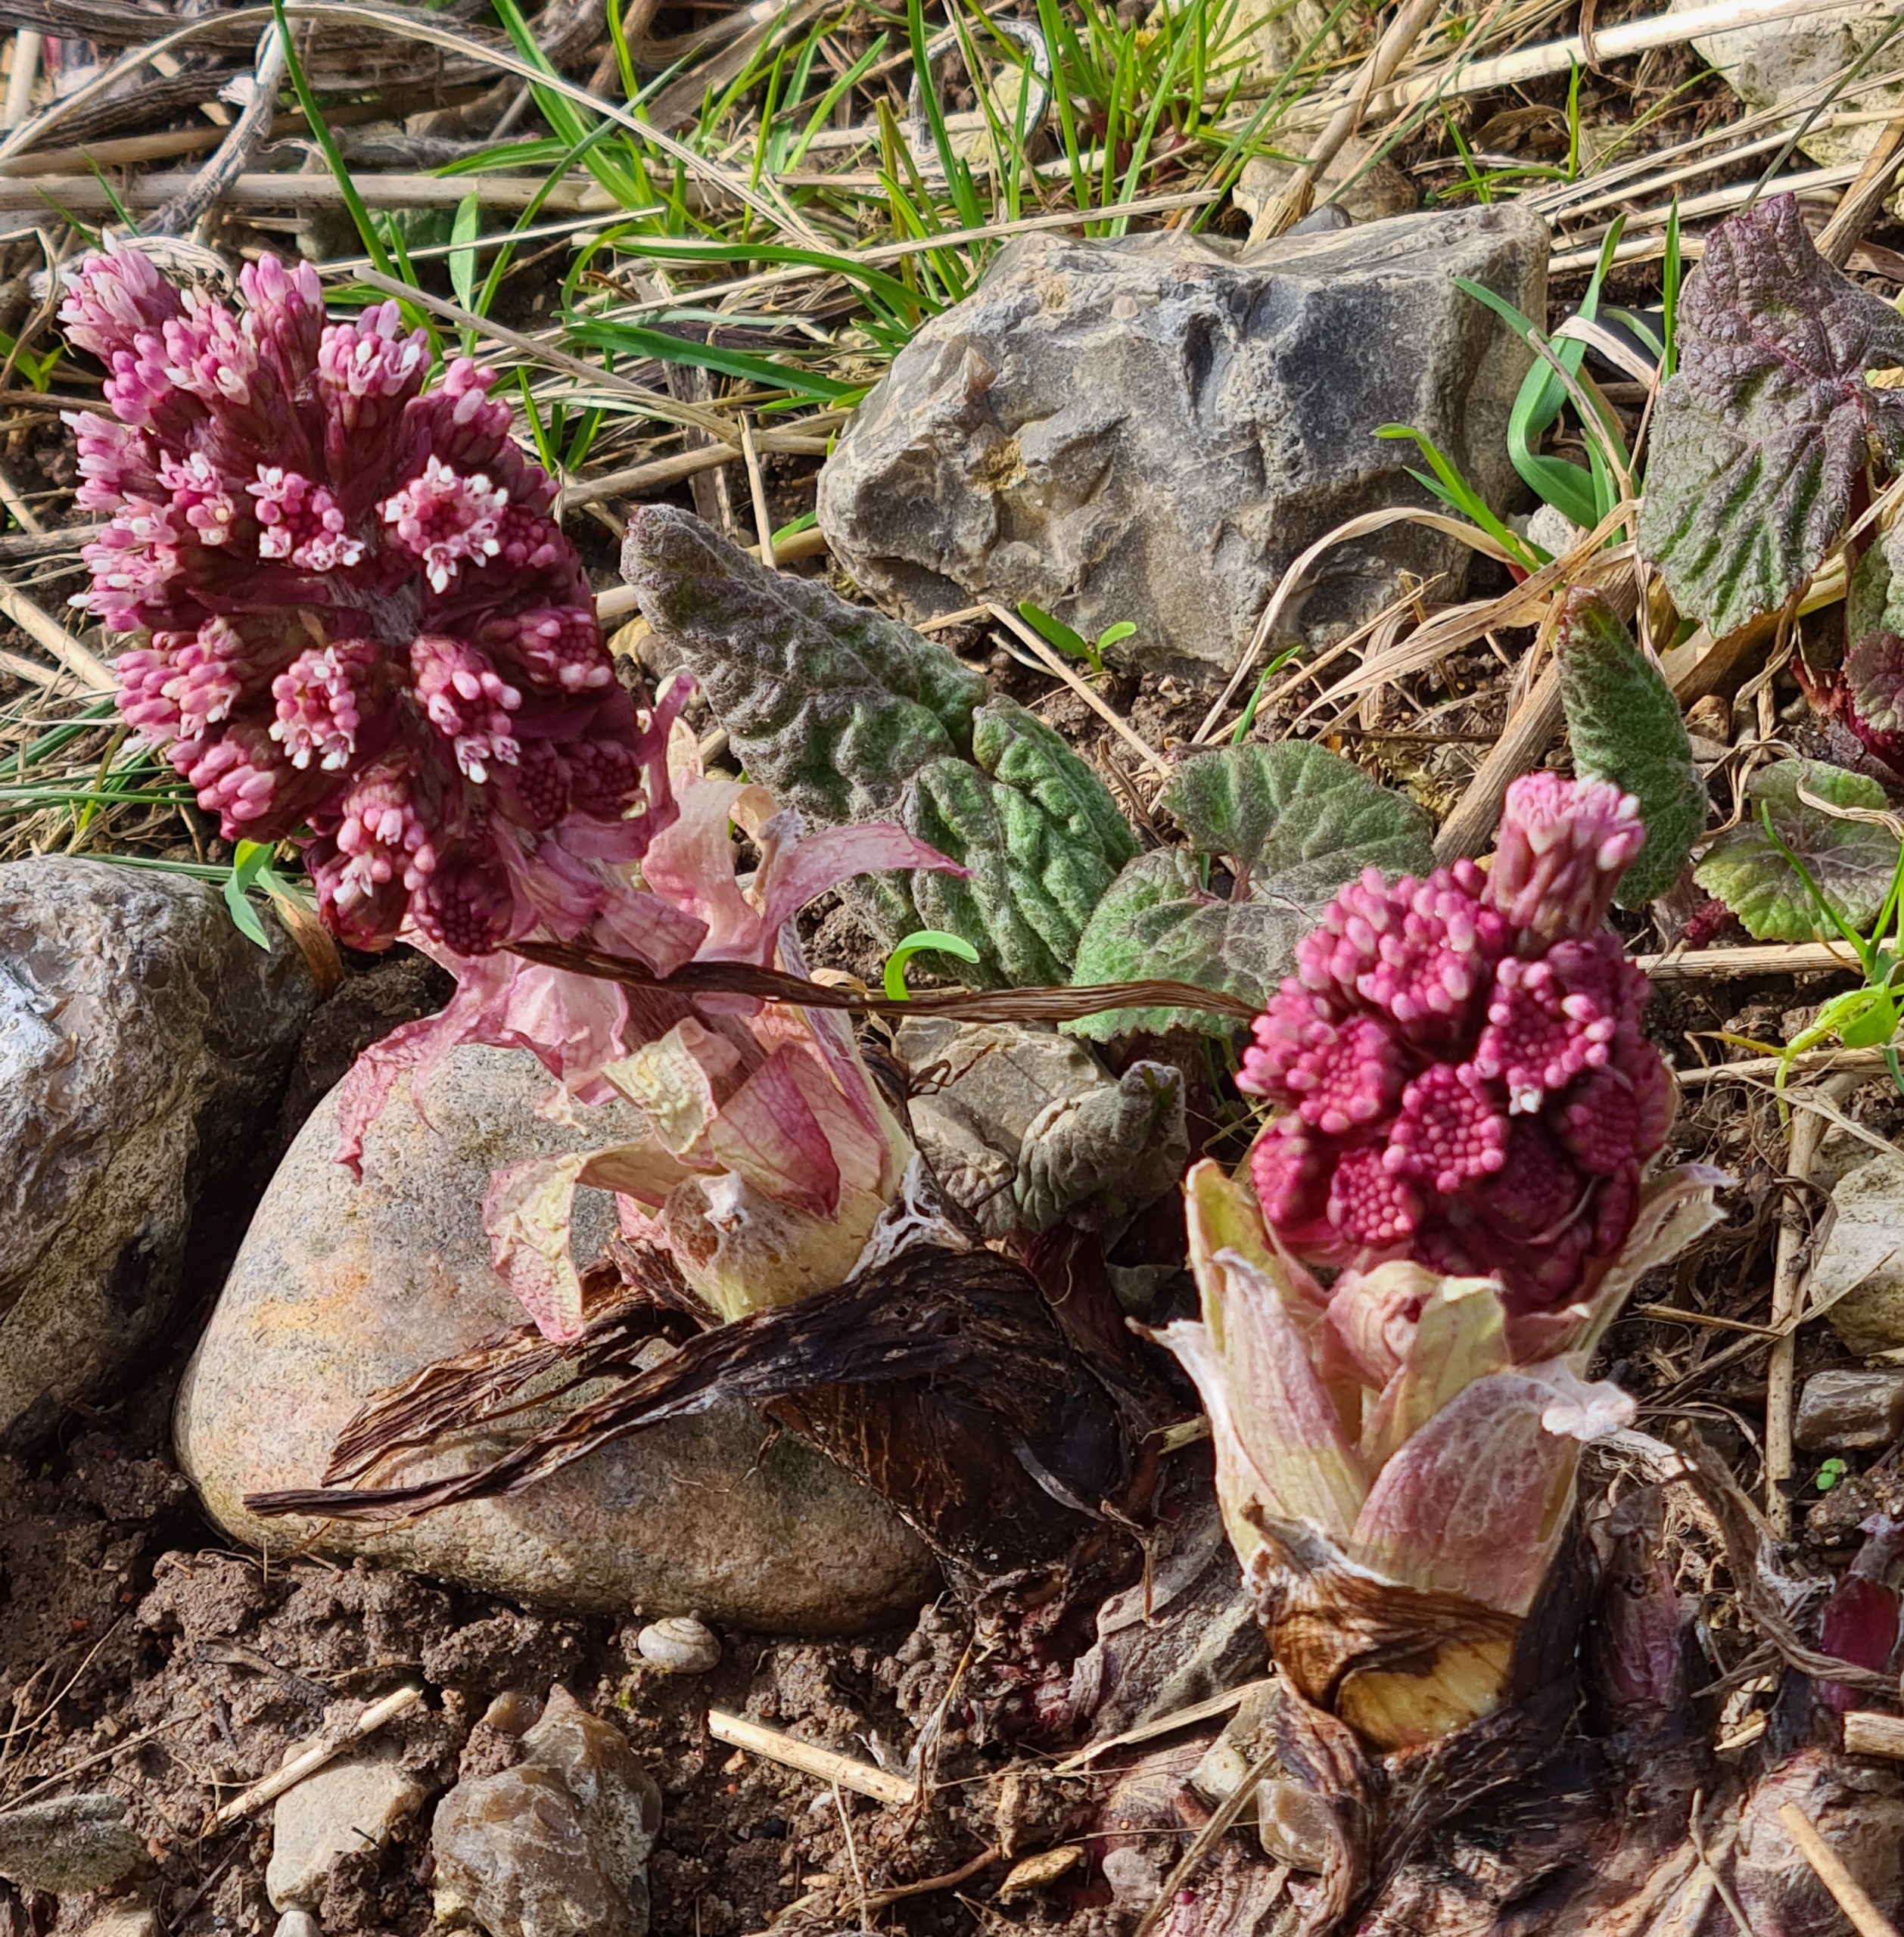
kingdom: Plantae
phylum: Tracheophyta
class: Magnoliopsida
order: Asterales
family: Asteraceae
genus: Petasites
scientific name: Petasites hybridus
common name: Rød hestehov
